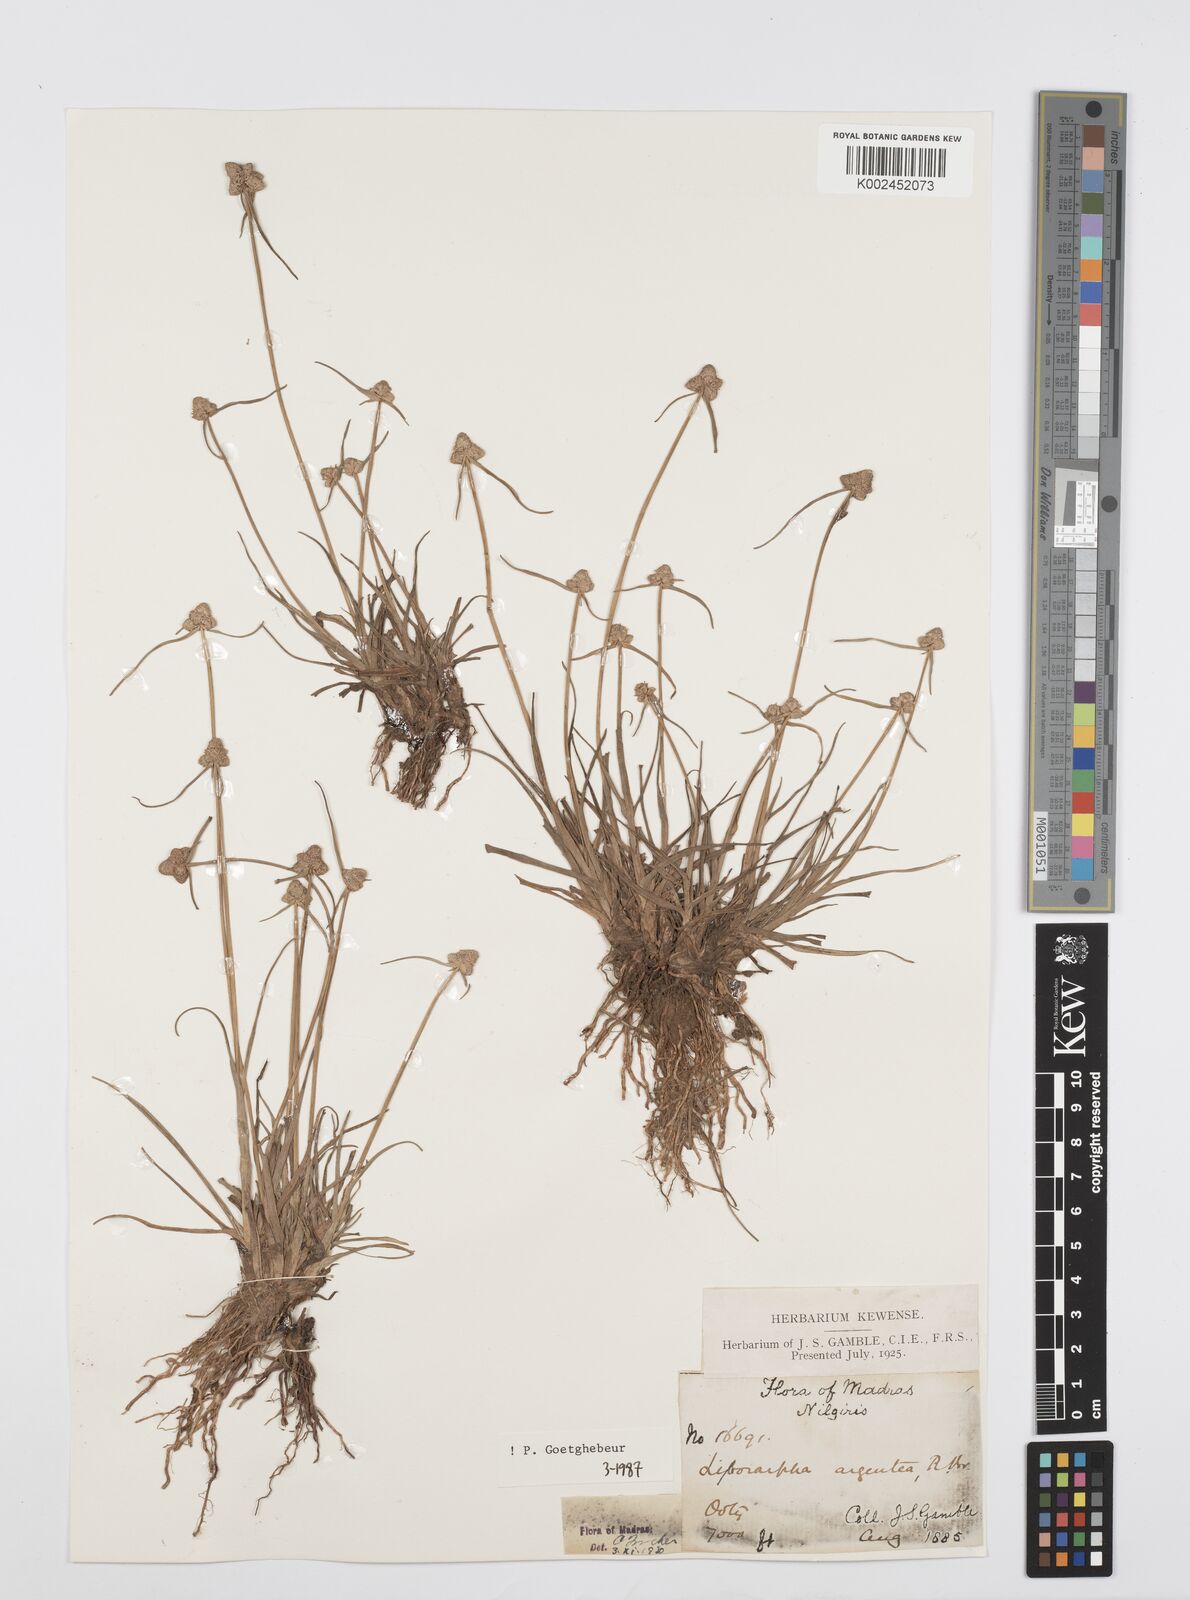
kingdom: Plantae
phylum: Tracheophyta
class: Liliopsida
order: Poales
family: Cyperaceae
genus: Cyperus
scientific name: Cyperus
